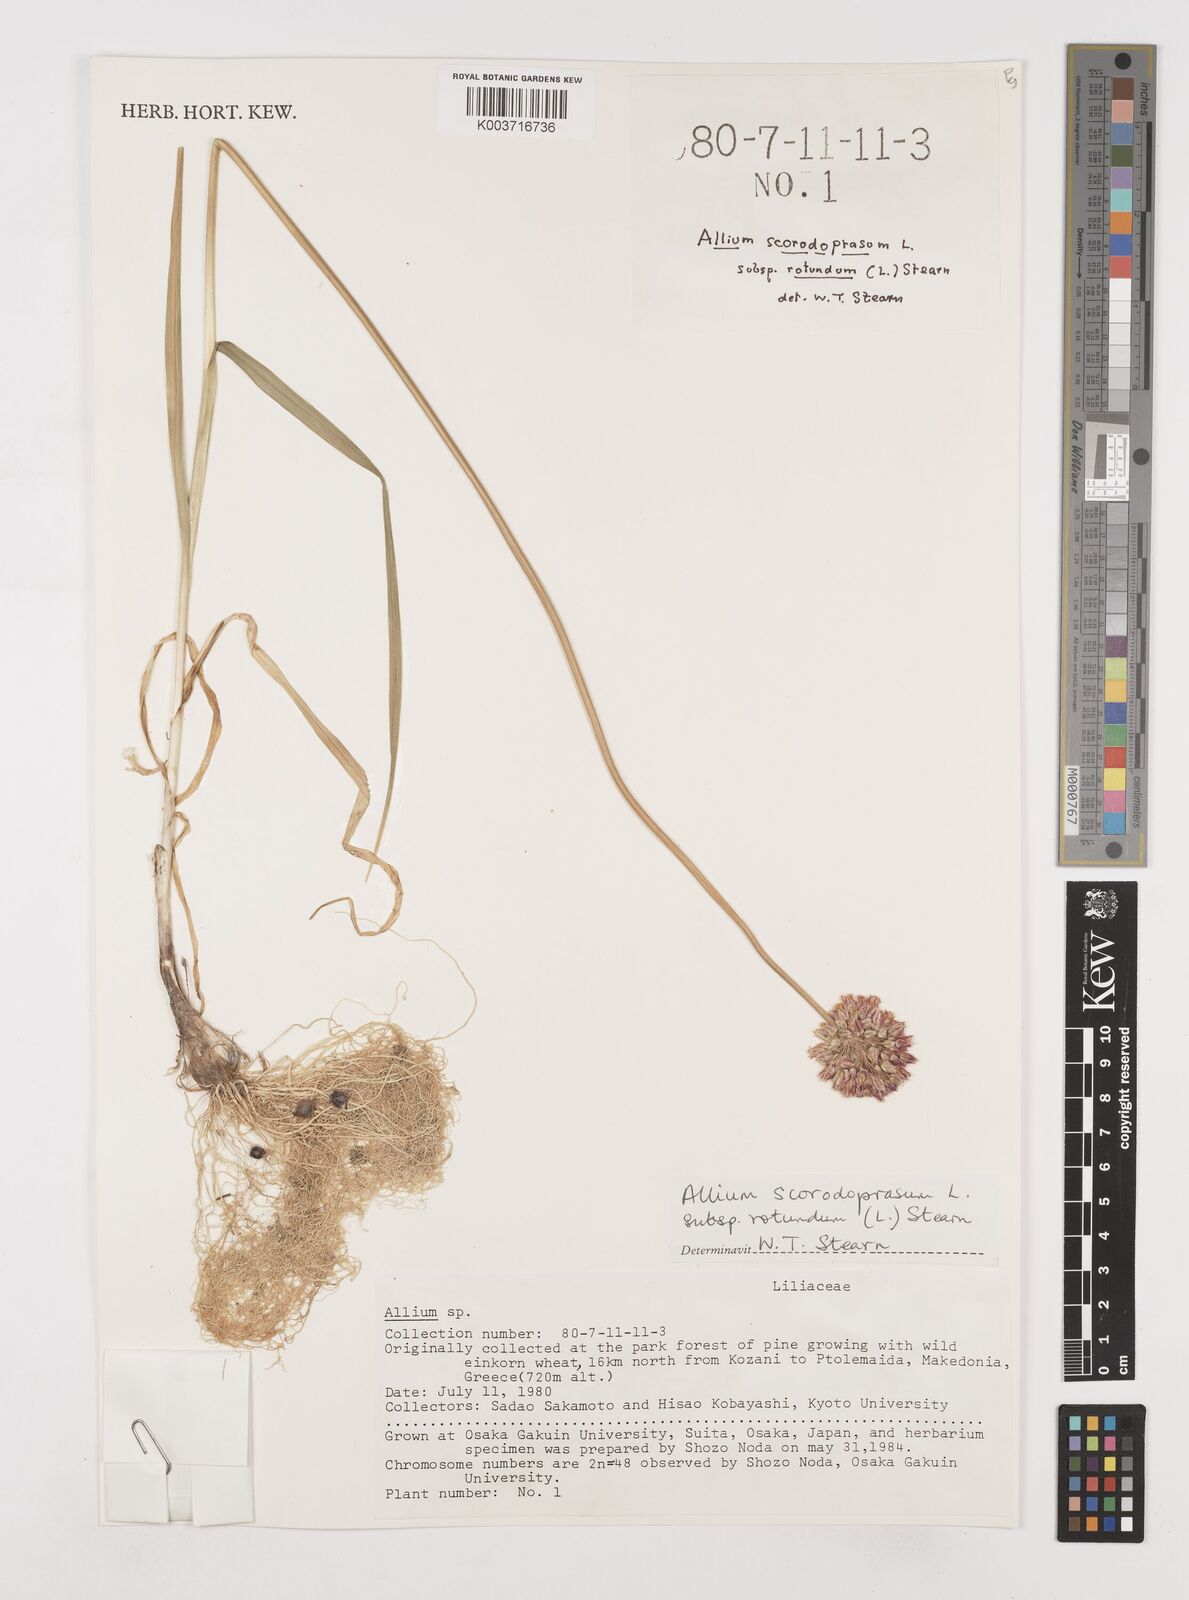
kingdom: Plantae
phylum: Tracheophyta
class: Liliopsida
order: Asparagales
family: Amaryllidaceae
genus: Allium
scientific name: Allium rotundum
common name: Sand leek
